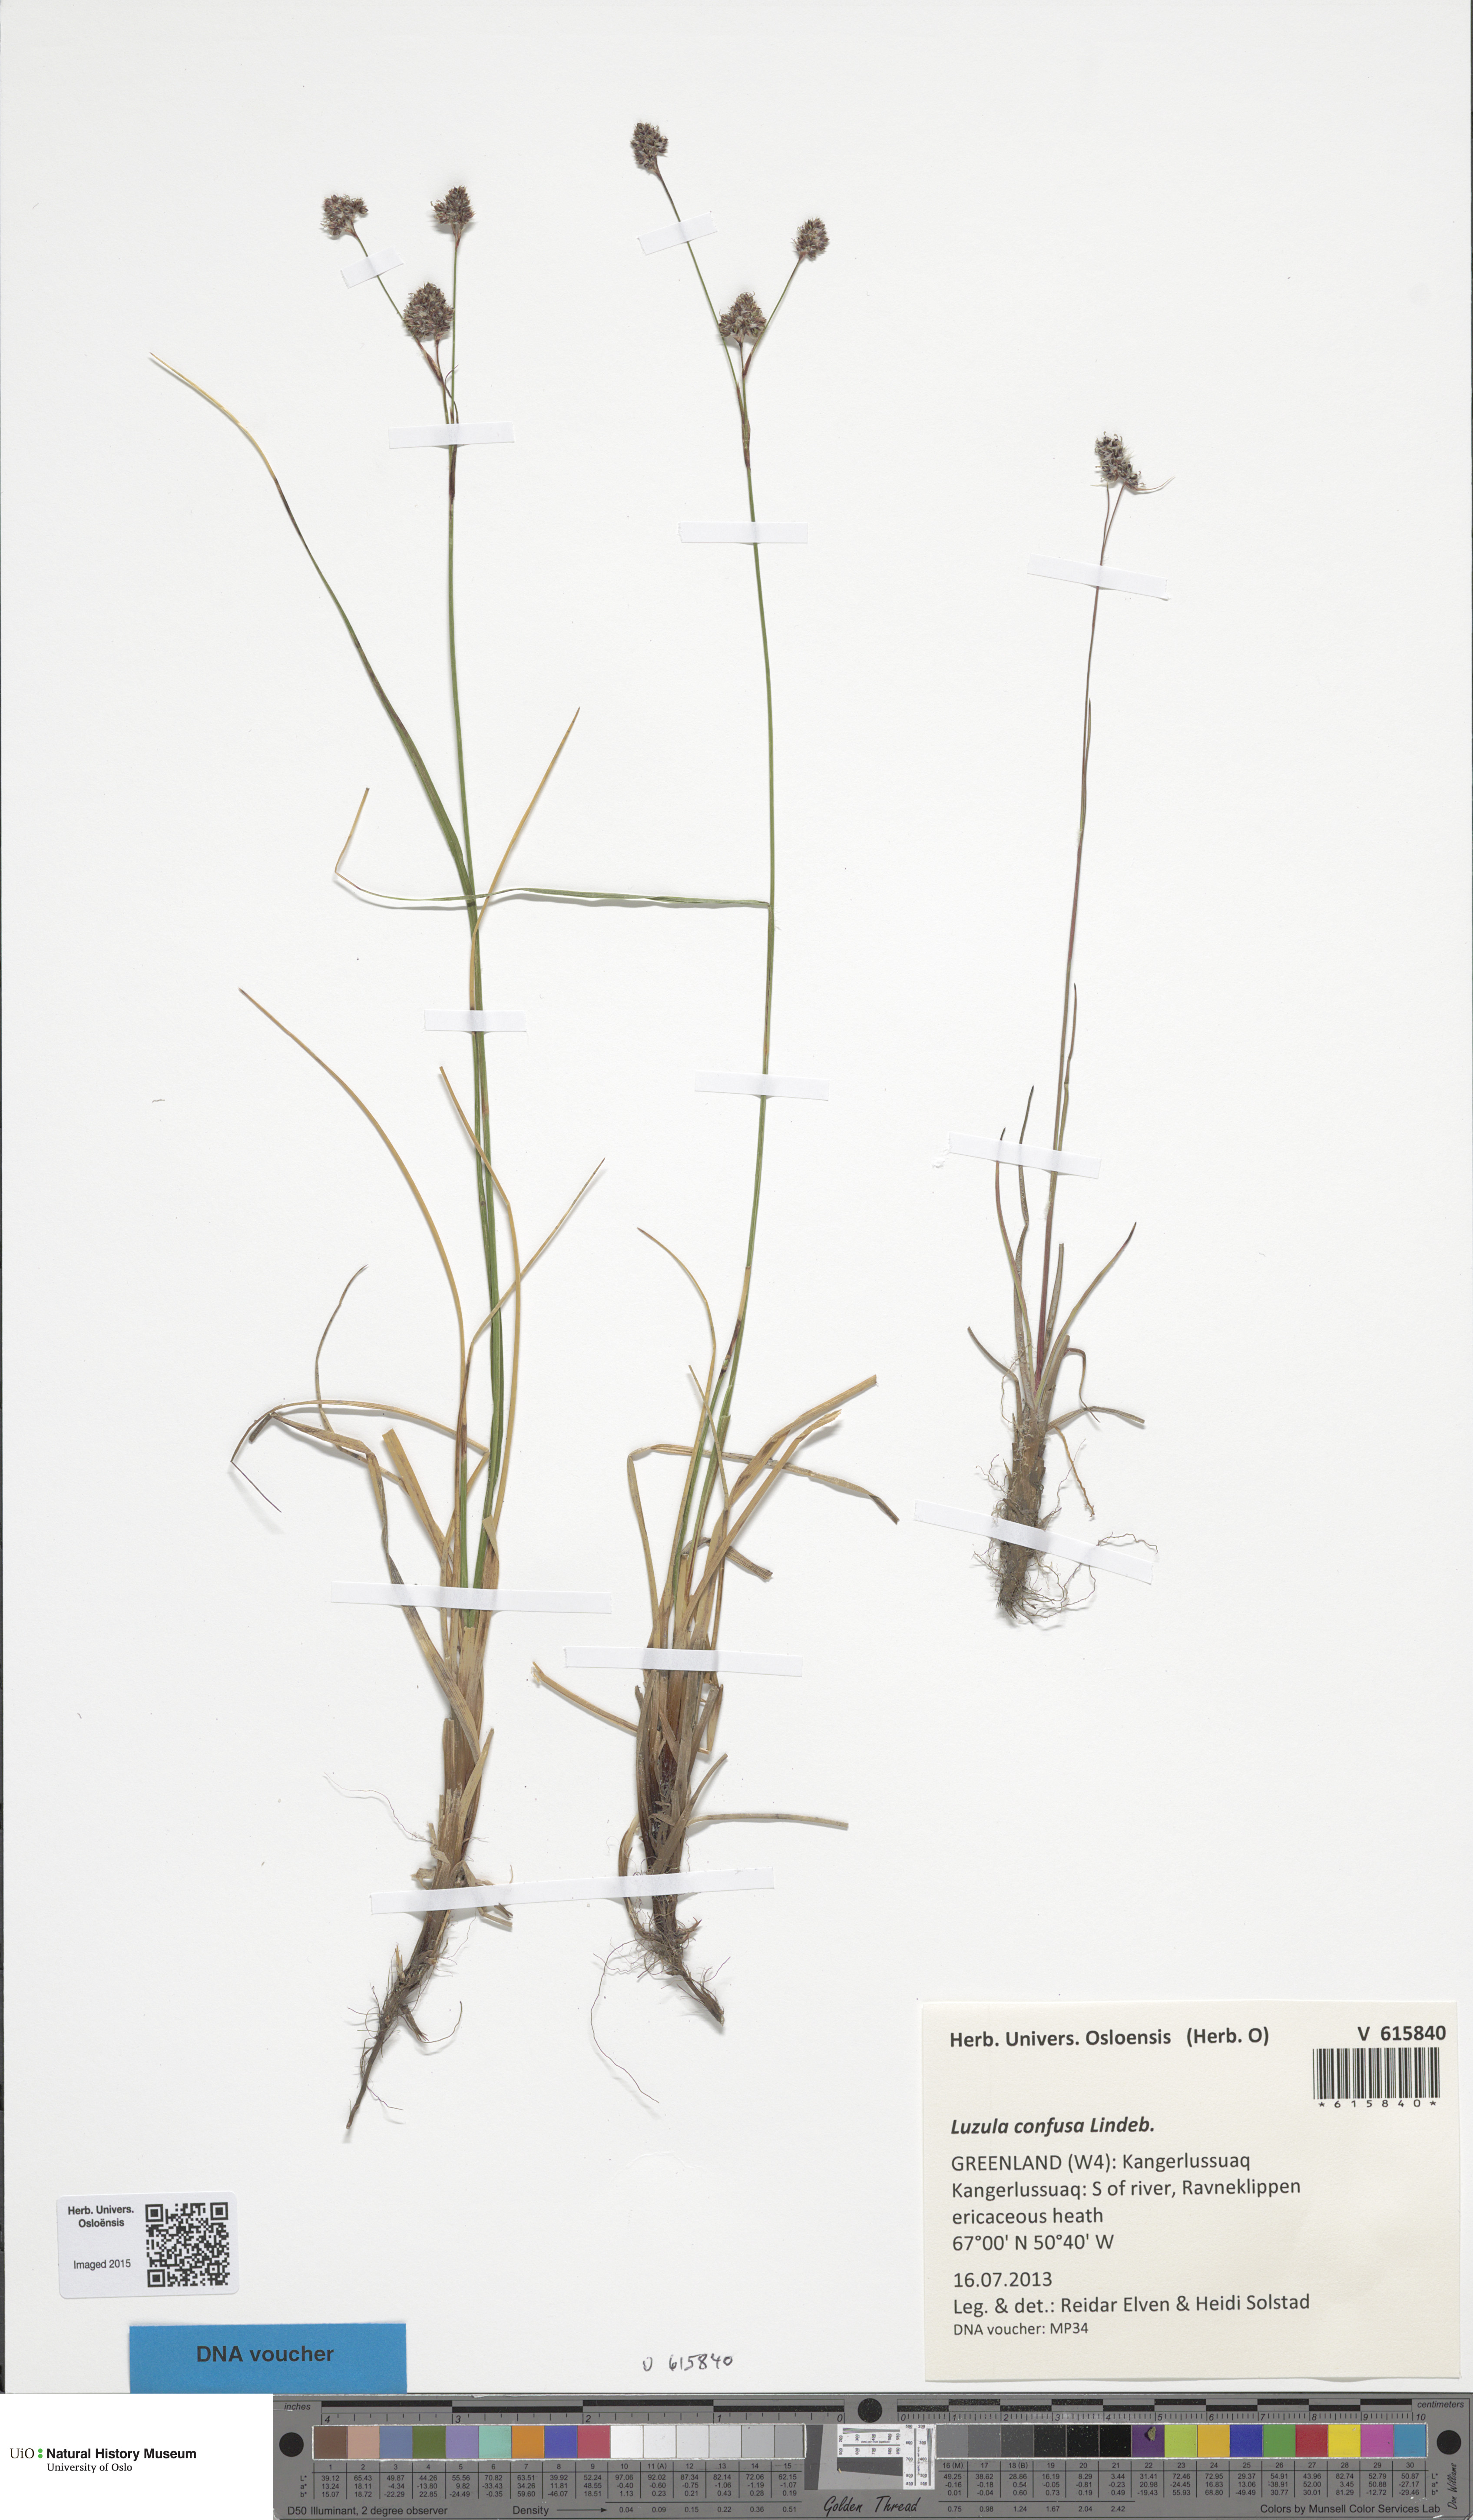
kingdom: Plantae
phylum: Tracheophyta
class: Liliopsida
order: Poales
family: Juncaceae
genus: Luzula
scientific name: Luzula confusa
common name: Northern wood rush
